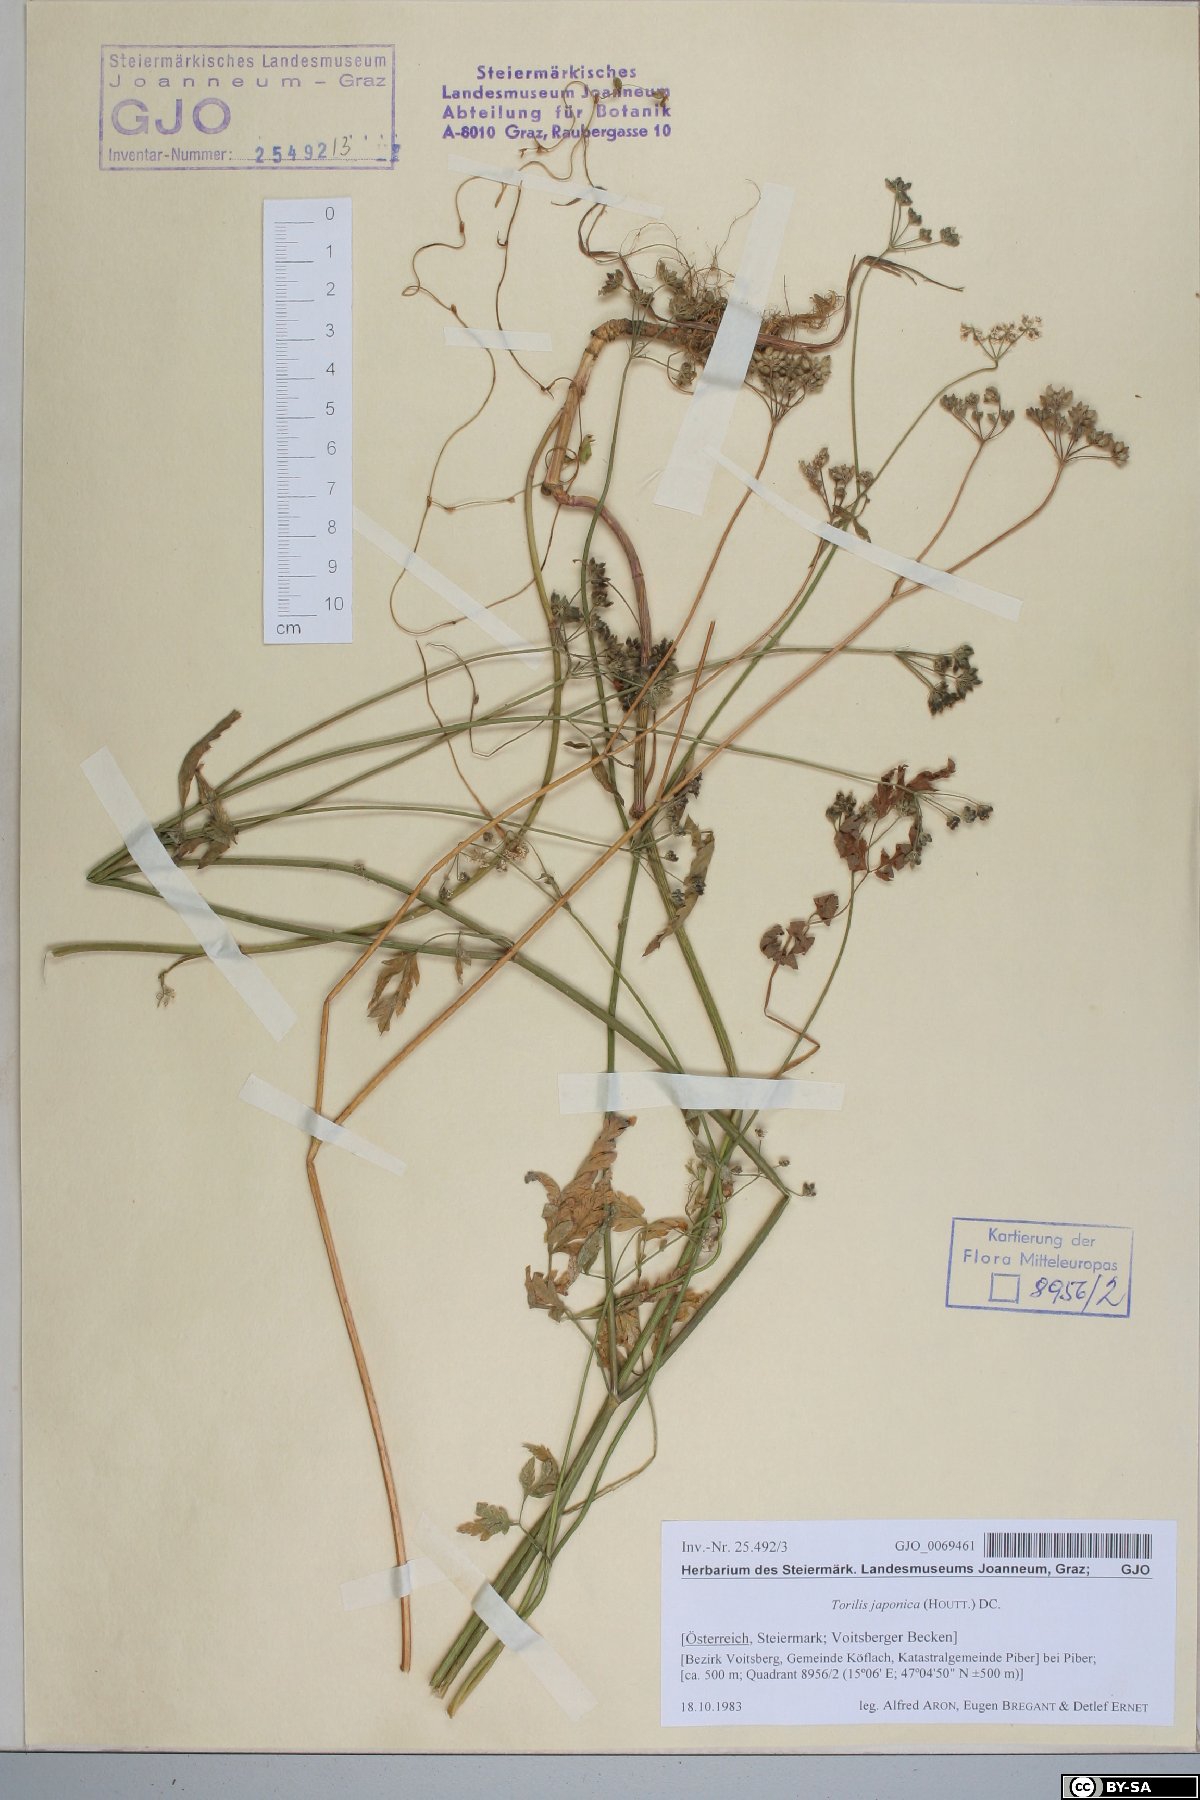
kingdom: Plantae
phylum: Tracheophyta
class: Magnoliopsida
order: Apiales
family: Apiaceae
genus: Torilis
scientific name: Torilis japonica
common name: Upright hedge-parsley
